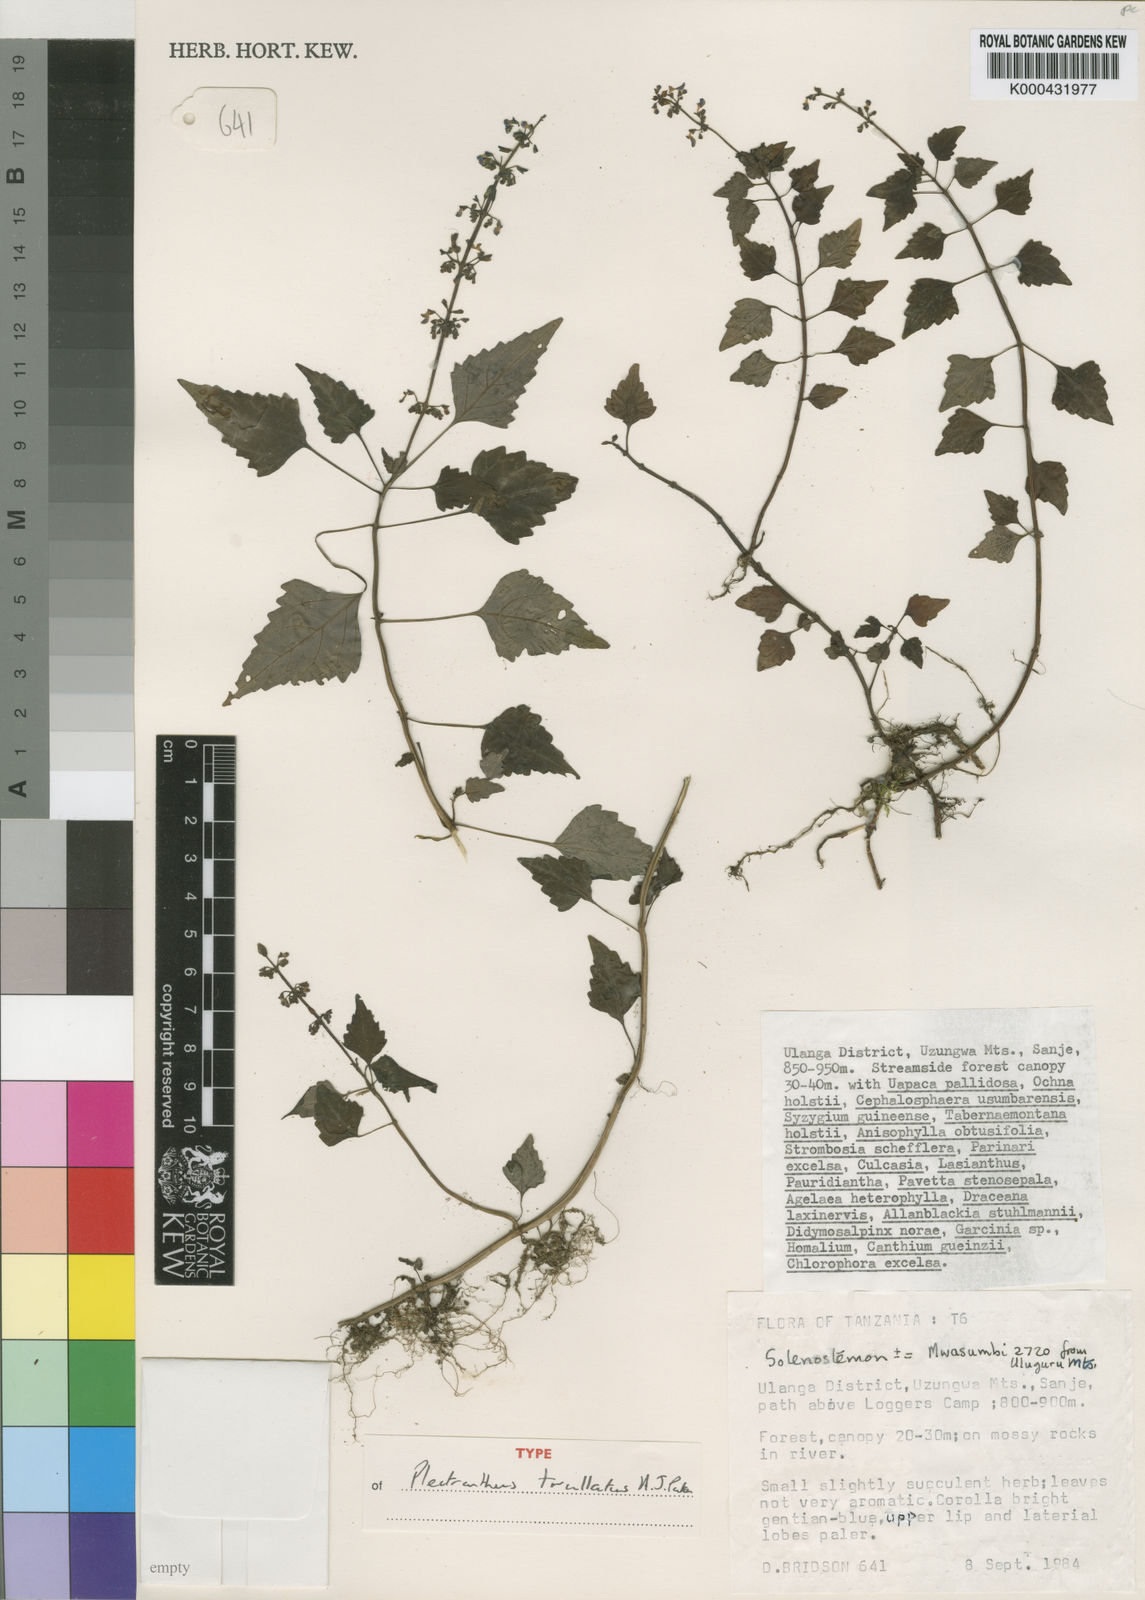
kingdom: Plantae
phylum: Tracheophyta
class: Magnoliopsida
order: Lamiales
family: Lamiaceae
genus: Coleus
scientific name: Coleus trullatus
